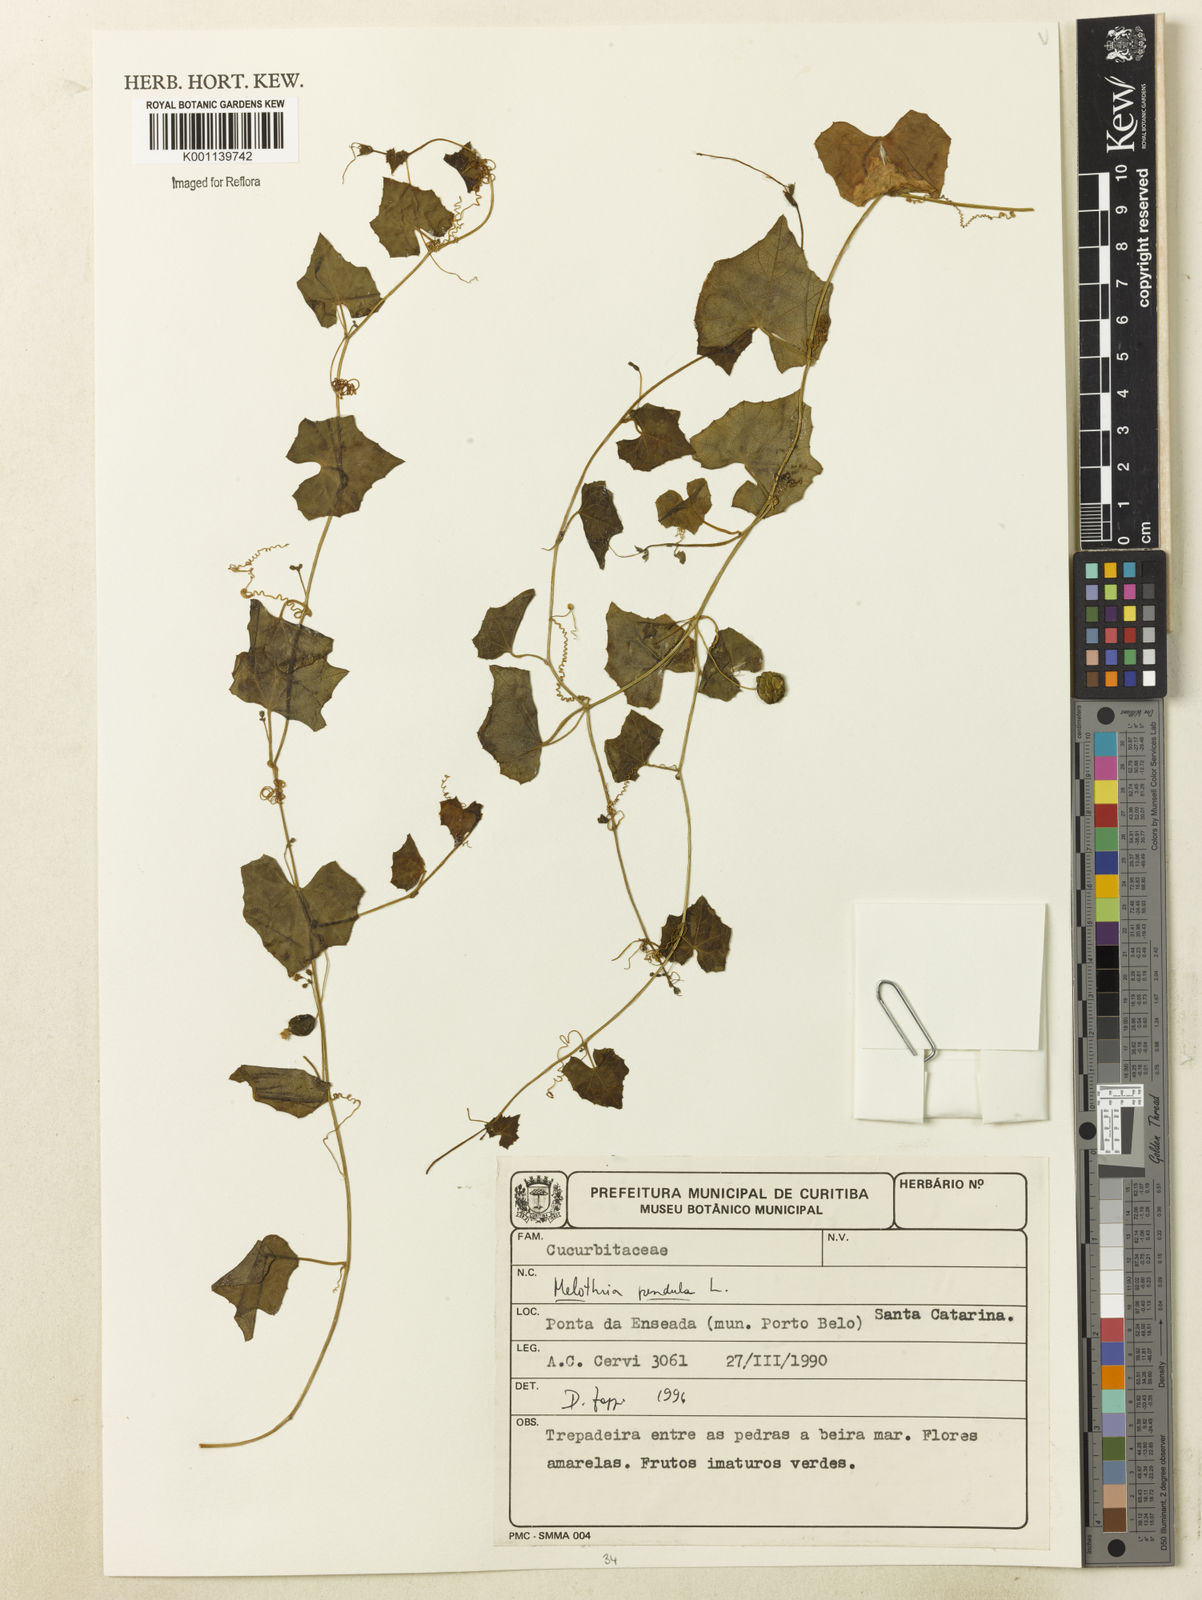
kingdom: Plantae
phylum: Tracheophyta
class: Magnoliopsida
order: Cucurbitales
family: Cucurbitaceae
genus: Melothria
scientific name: Melothria pendula
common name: Creeping-cucumber
